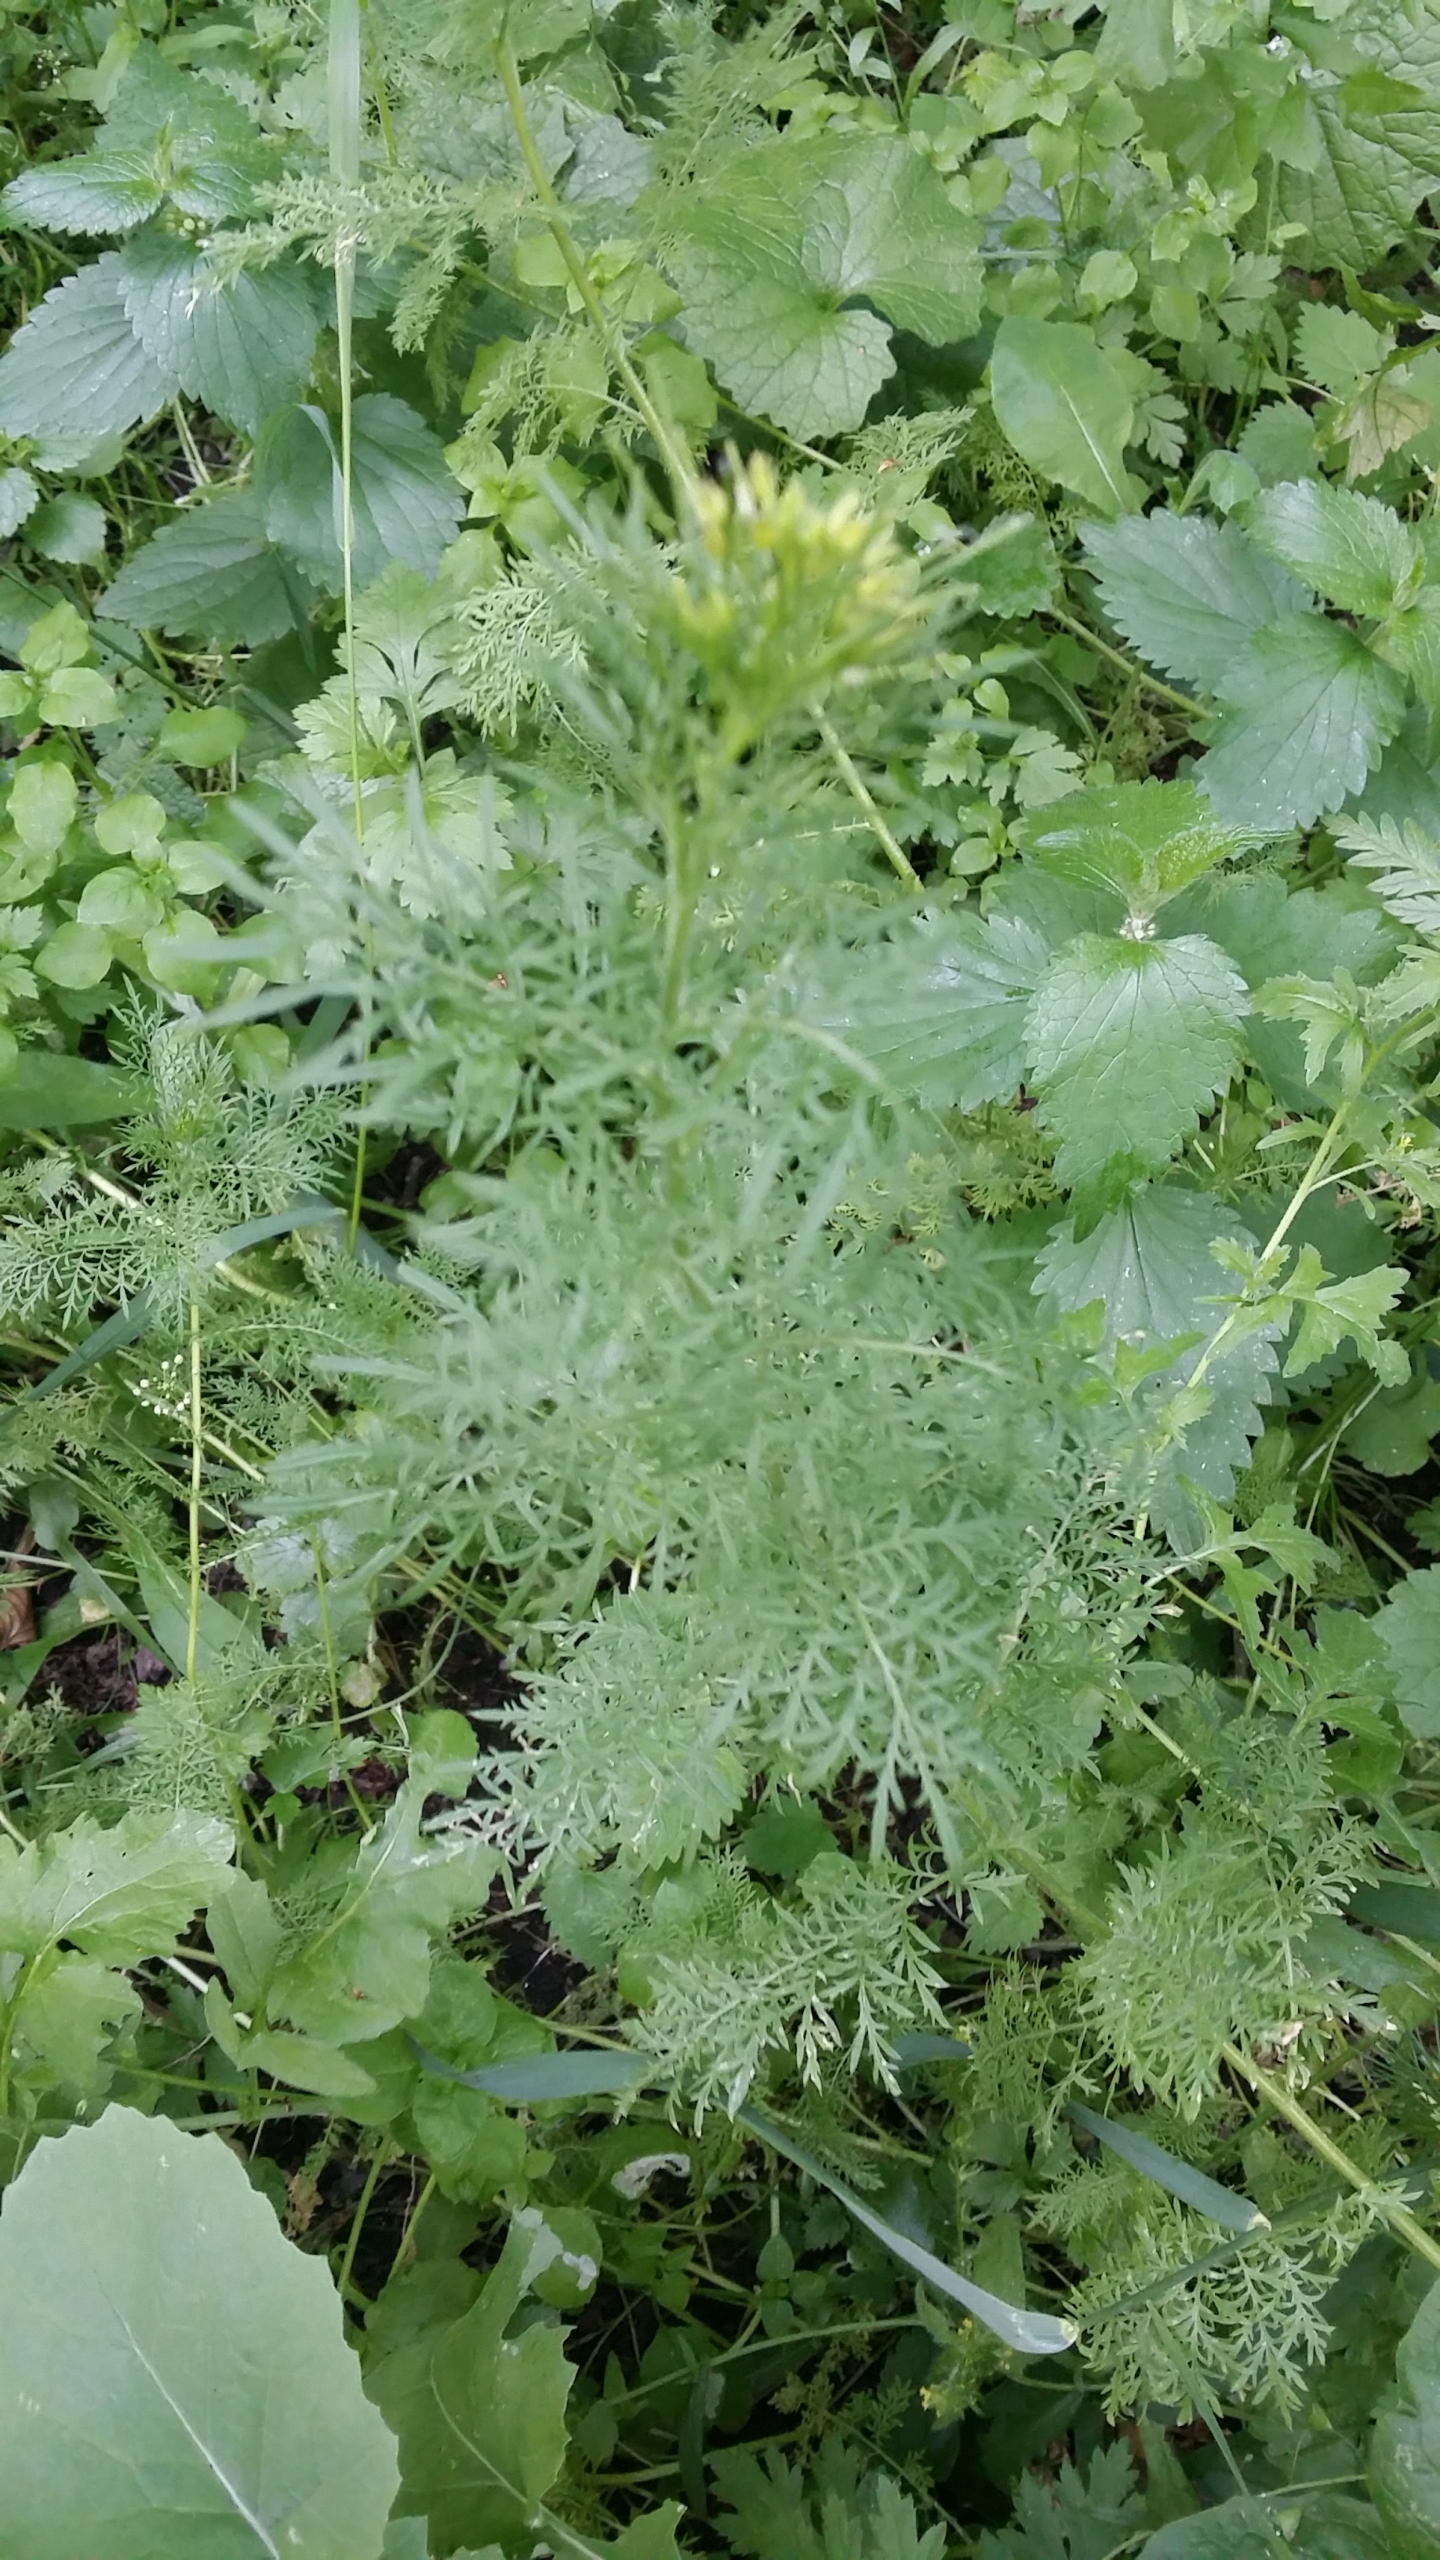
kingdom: Plantae
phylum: Tracheophyta
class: Magnoliopsida
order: Brassicales
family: Brassicaceae
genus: Descurainia
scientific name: Descurainia sophia
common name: Finbladet vejsennep
